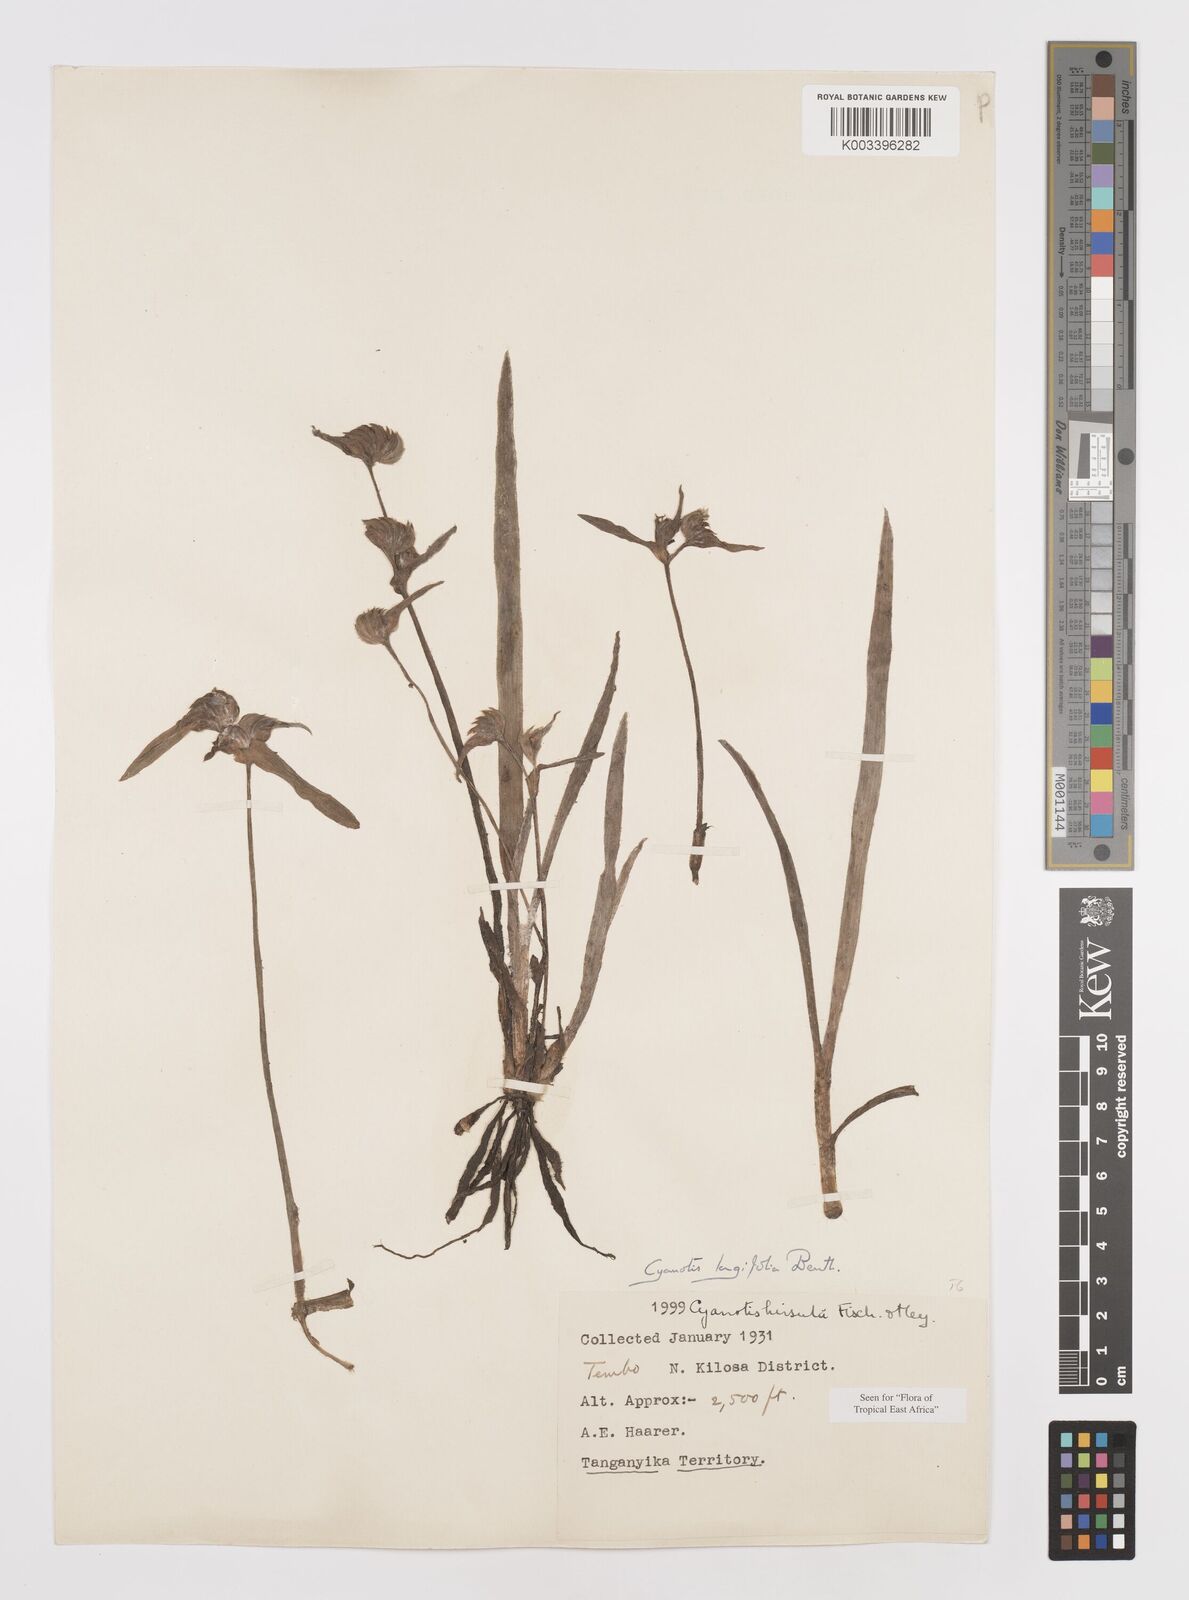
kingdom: Plantae
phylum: Tracheophyta
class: Liliopsida
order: Commelinales
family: Commelinaceae
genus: Cyanotis
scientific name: Cyanotis longifolia
